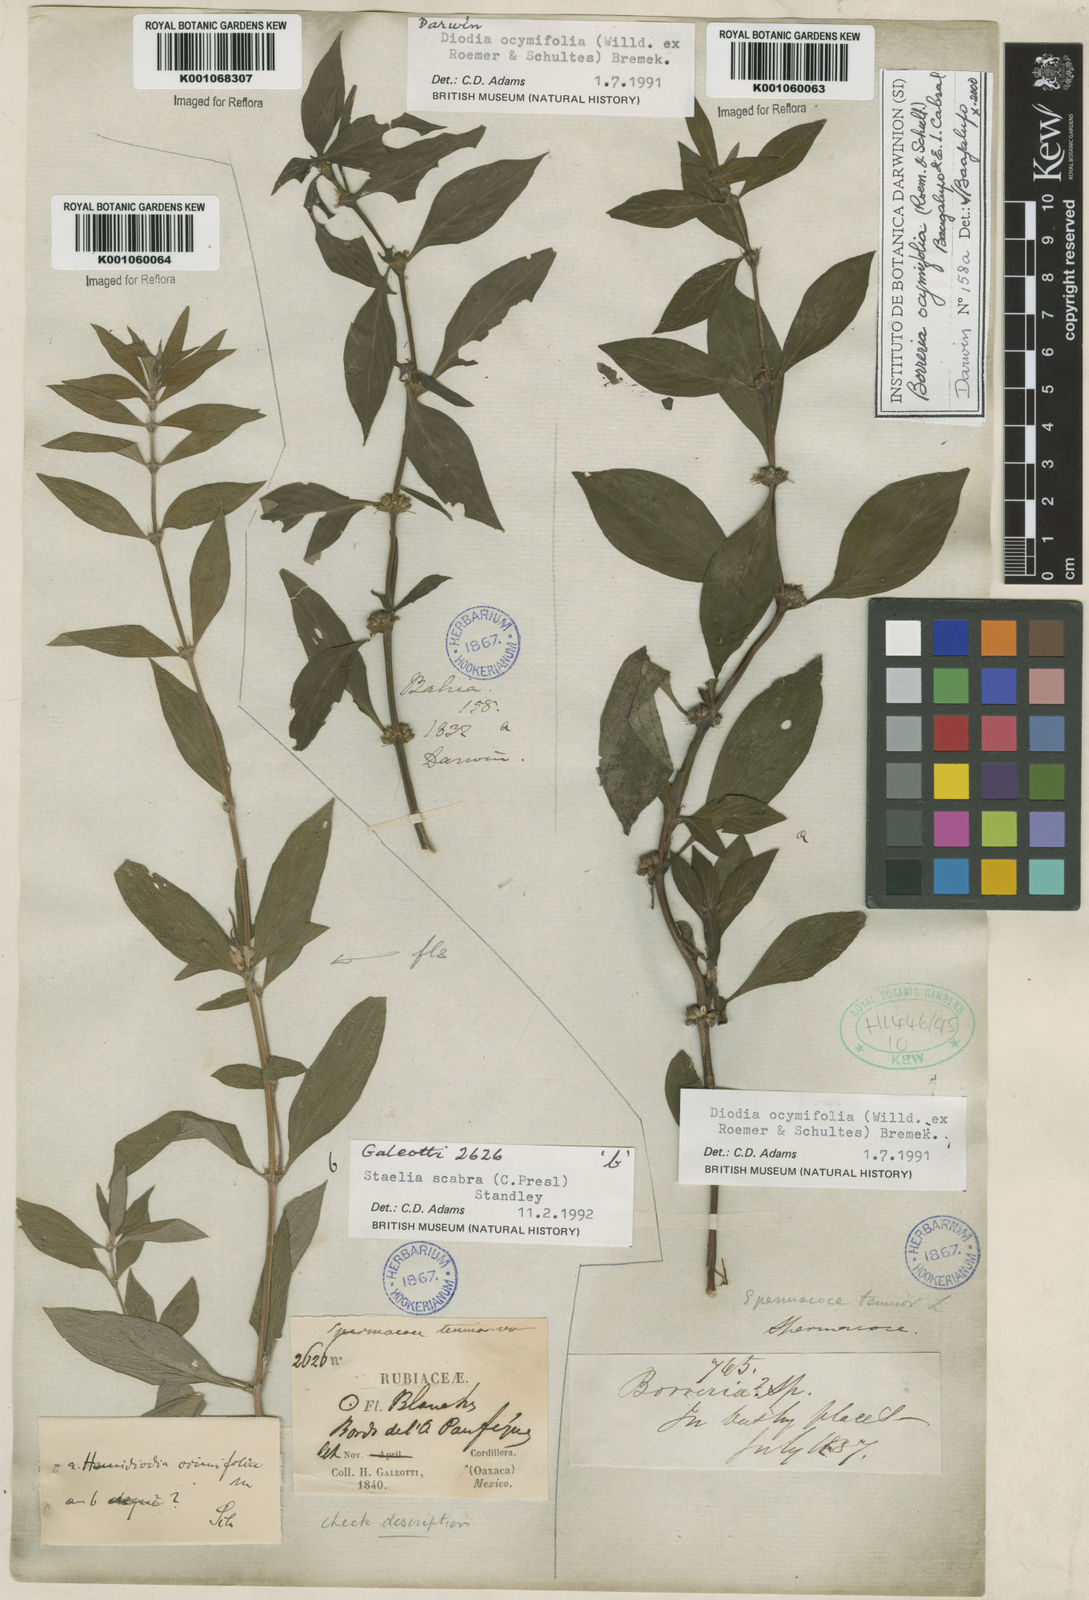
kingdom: Plantae
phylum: Tracheophyta
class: Magnoliopsida
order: Gentianales
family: Rubiaceae
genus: Spermacoce
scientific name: Spermacoce
